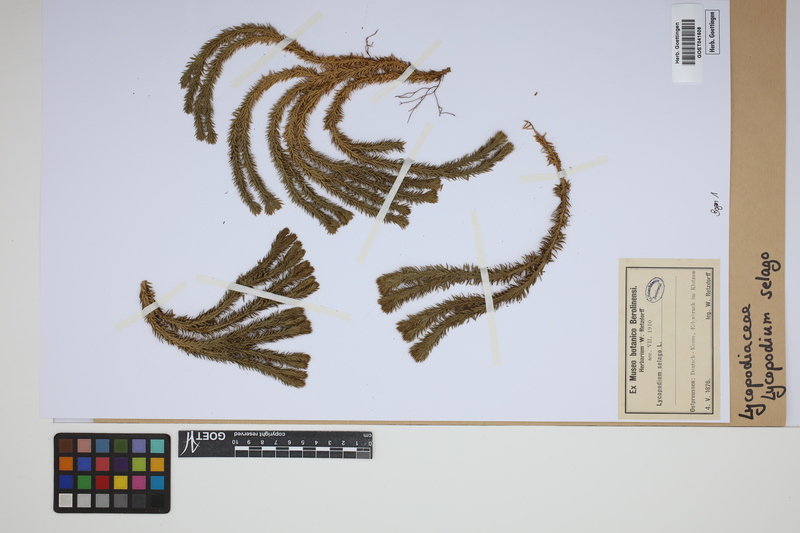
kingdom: Plantae
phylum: Tracheophyta
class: Lycopodiopsida
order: Lycopodiales
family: Lycopodiaceae
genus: Huperzia
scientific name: Huperzia selago
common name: Northern firmoss
